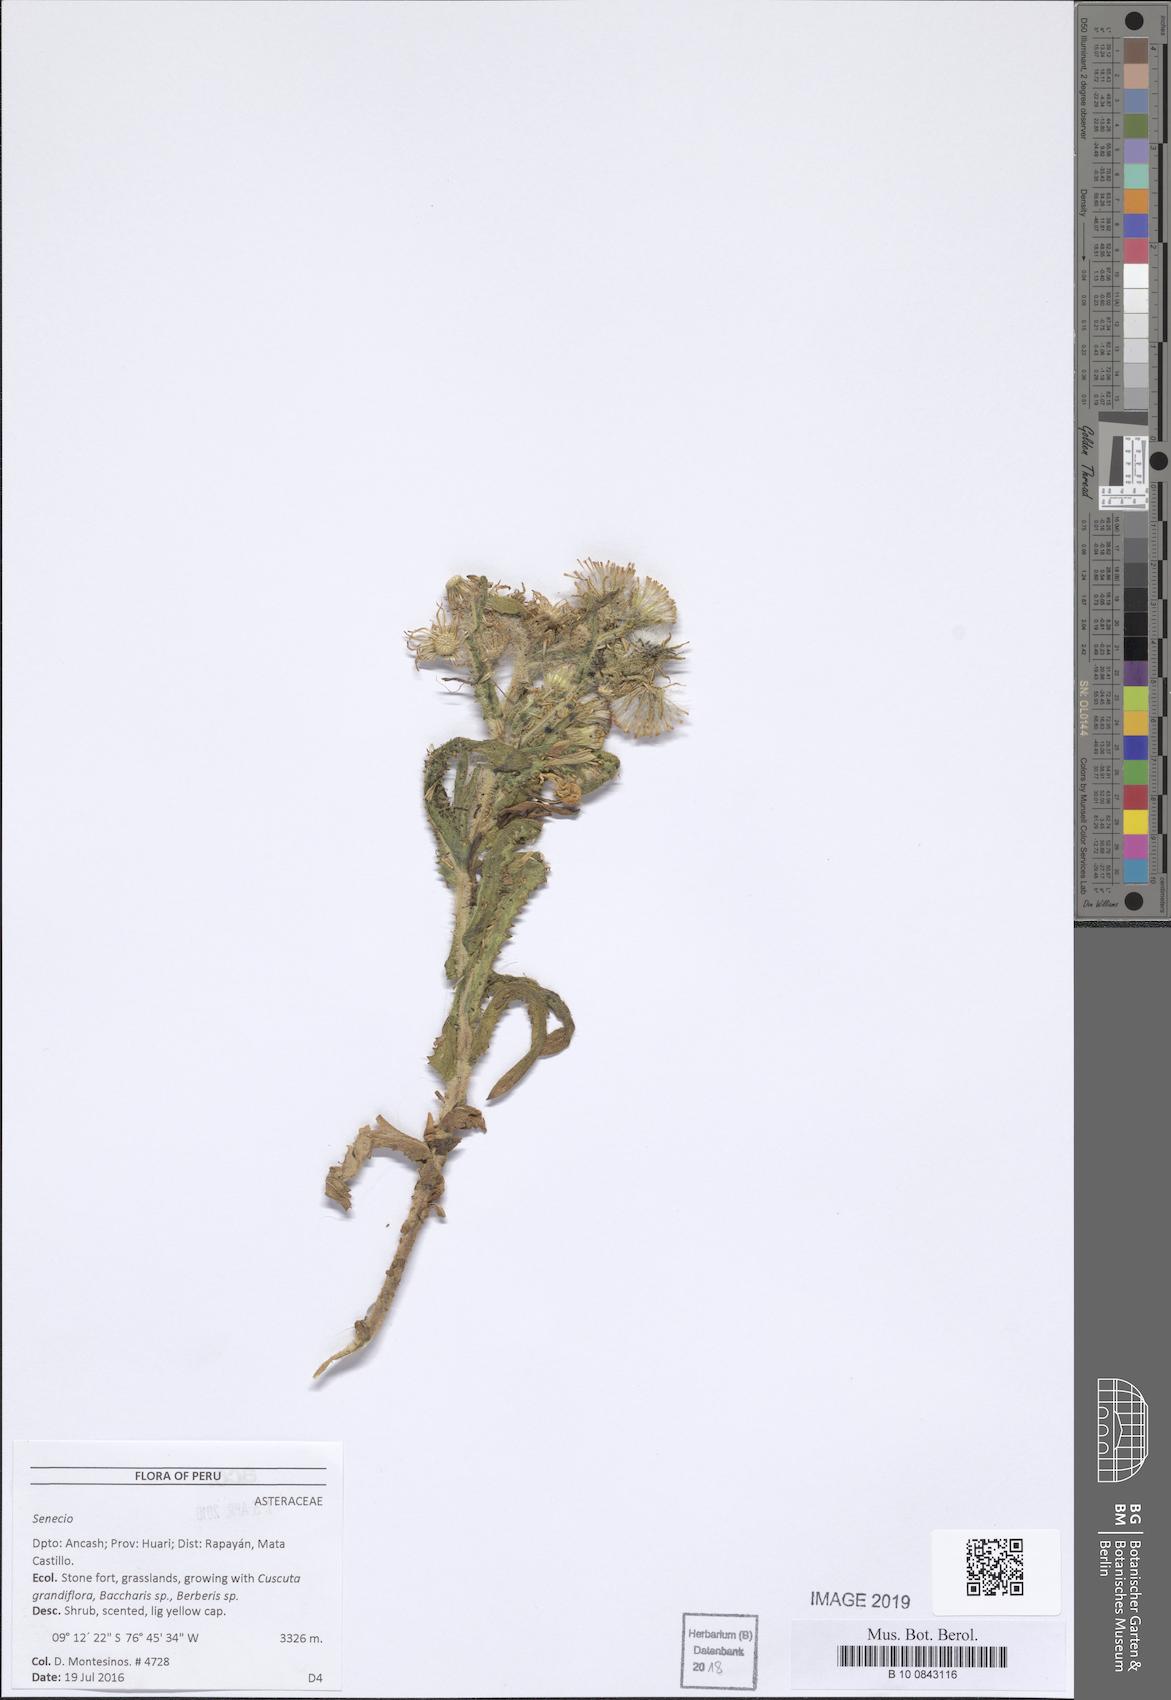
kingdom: Plantae
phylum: Tracheophyta
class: Magnoliopsida
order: Asterales
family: Asteraceae
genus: Senecio
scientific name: Senecio chavanilloensis
